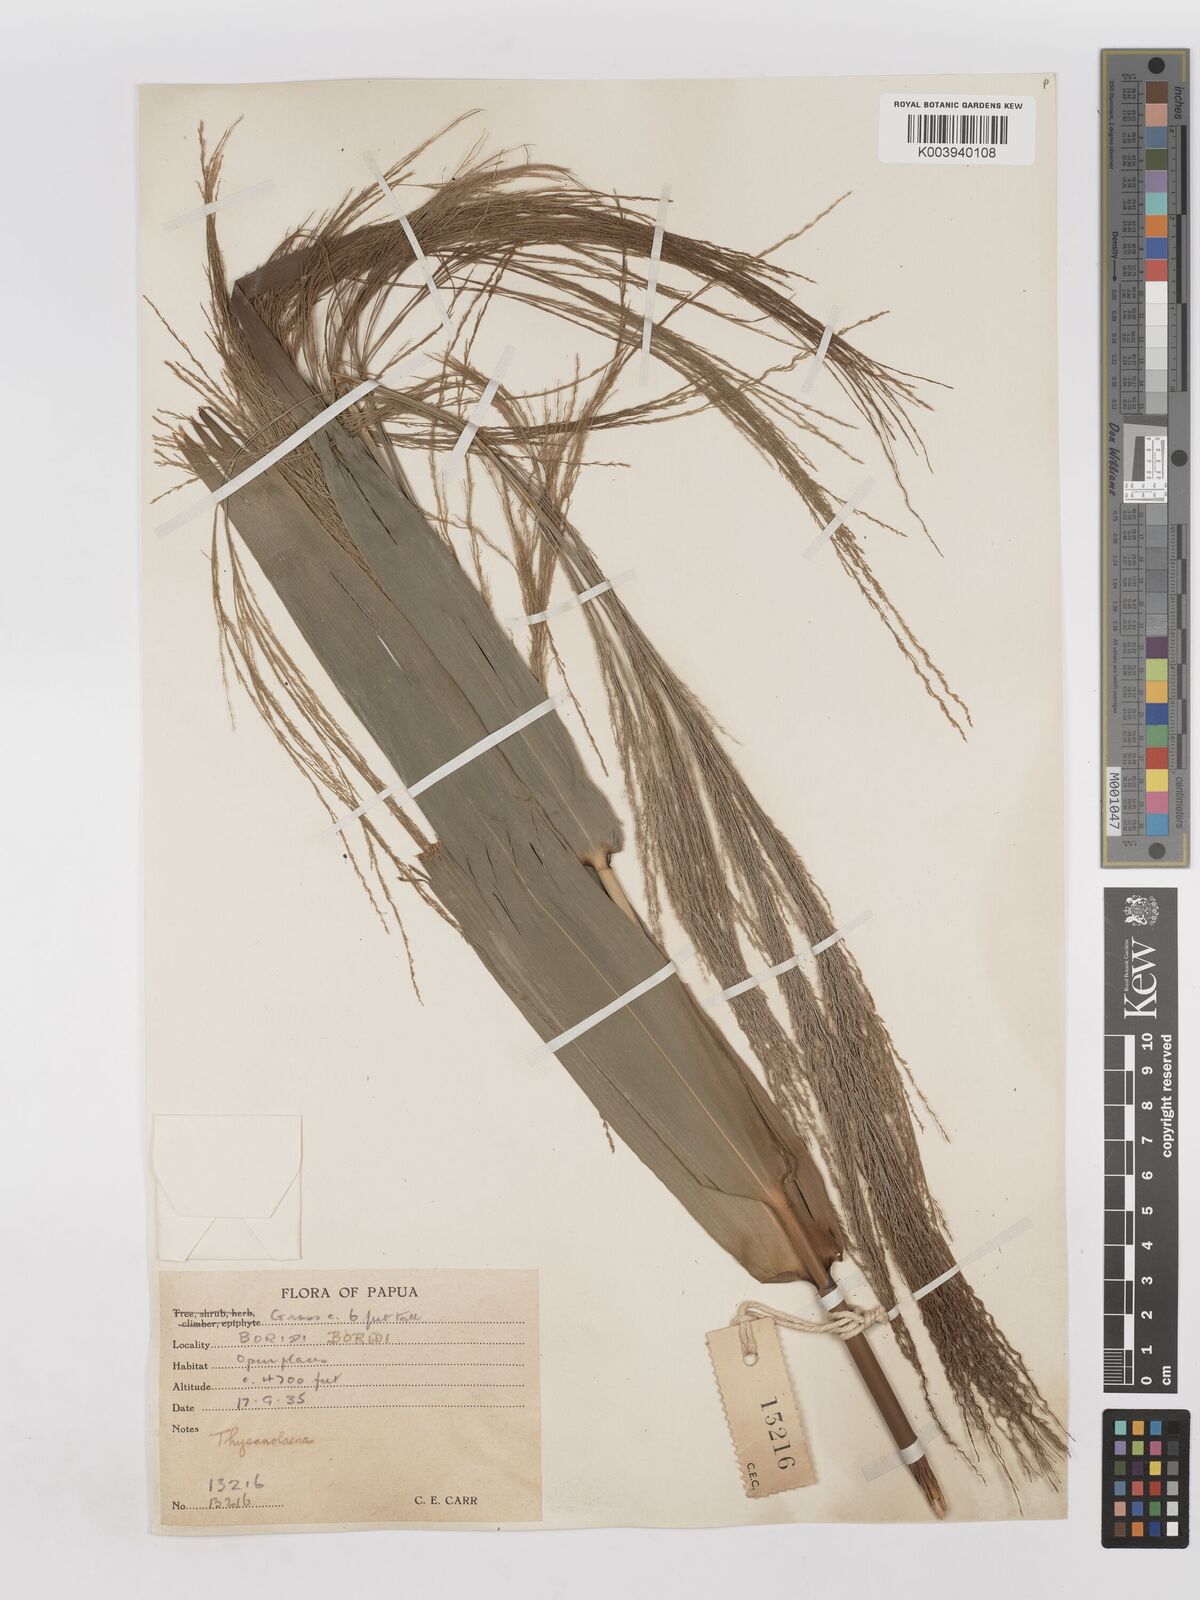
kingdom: Plantae
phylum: Tracheophyta
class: Liliopsida
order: Poales
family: Poaceae
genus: Thysanolaena
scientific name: Thysanolaena latifolia
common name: Tiger grass
